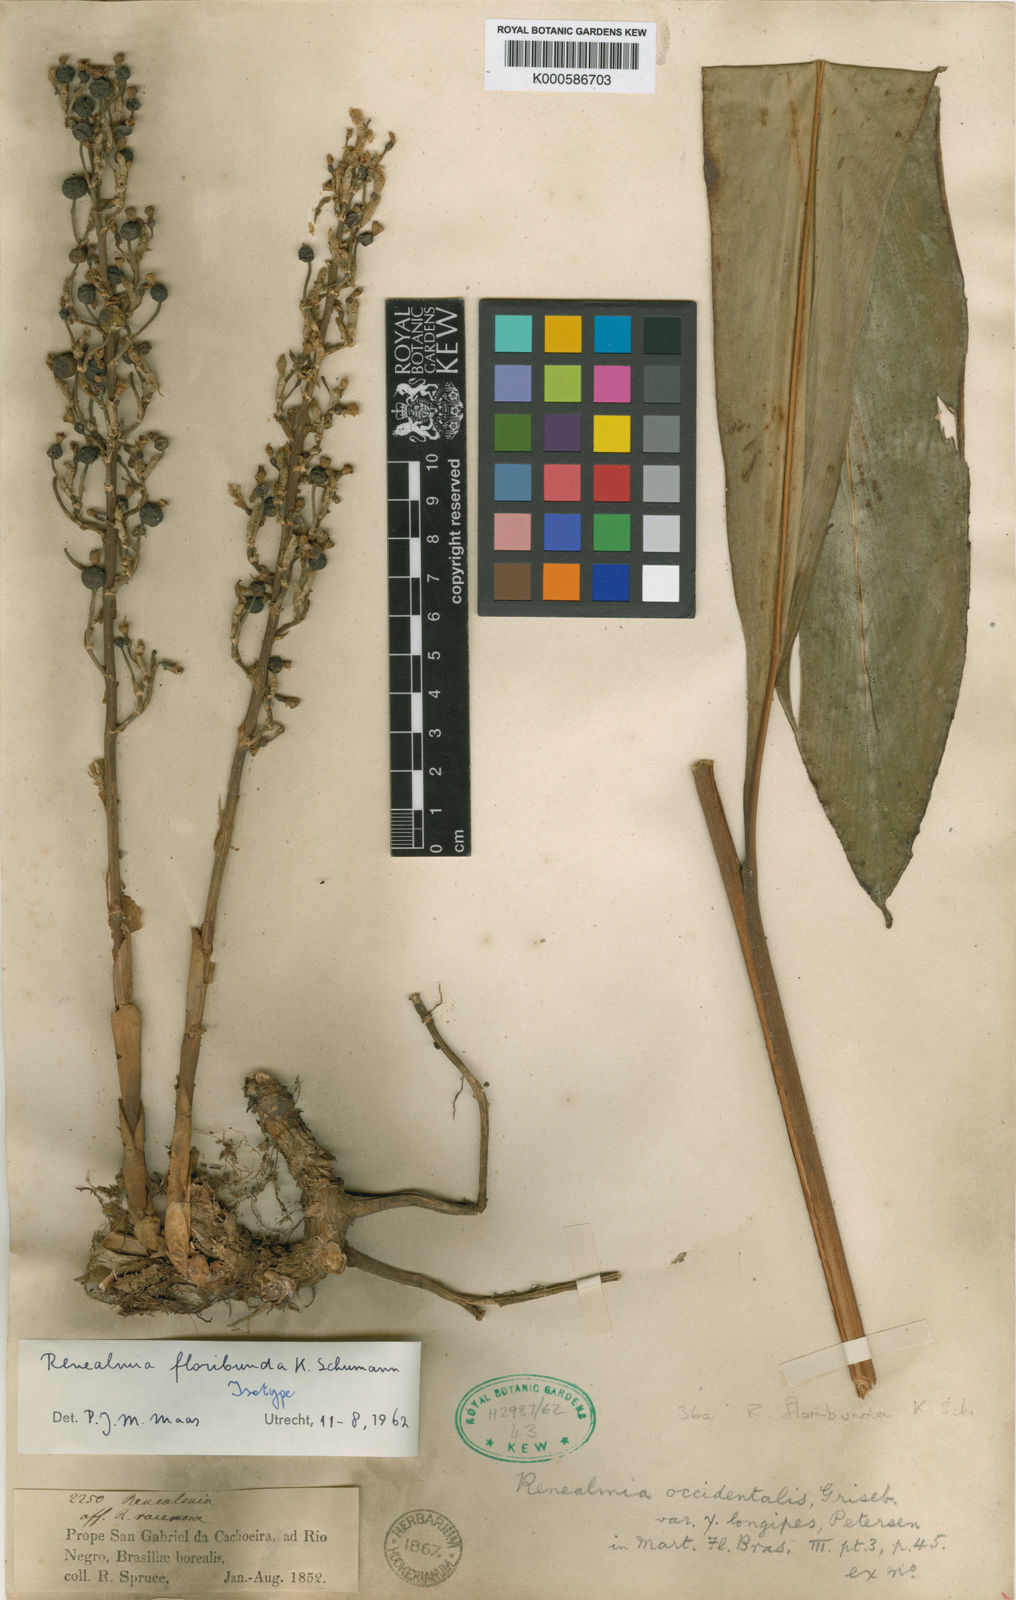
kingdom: Plantae
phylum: Tracheophyta
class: Liliopsida
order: Zingiberales
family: Zingiberaceae
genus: Renealmia
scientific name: Renealmia floribunda
